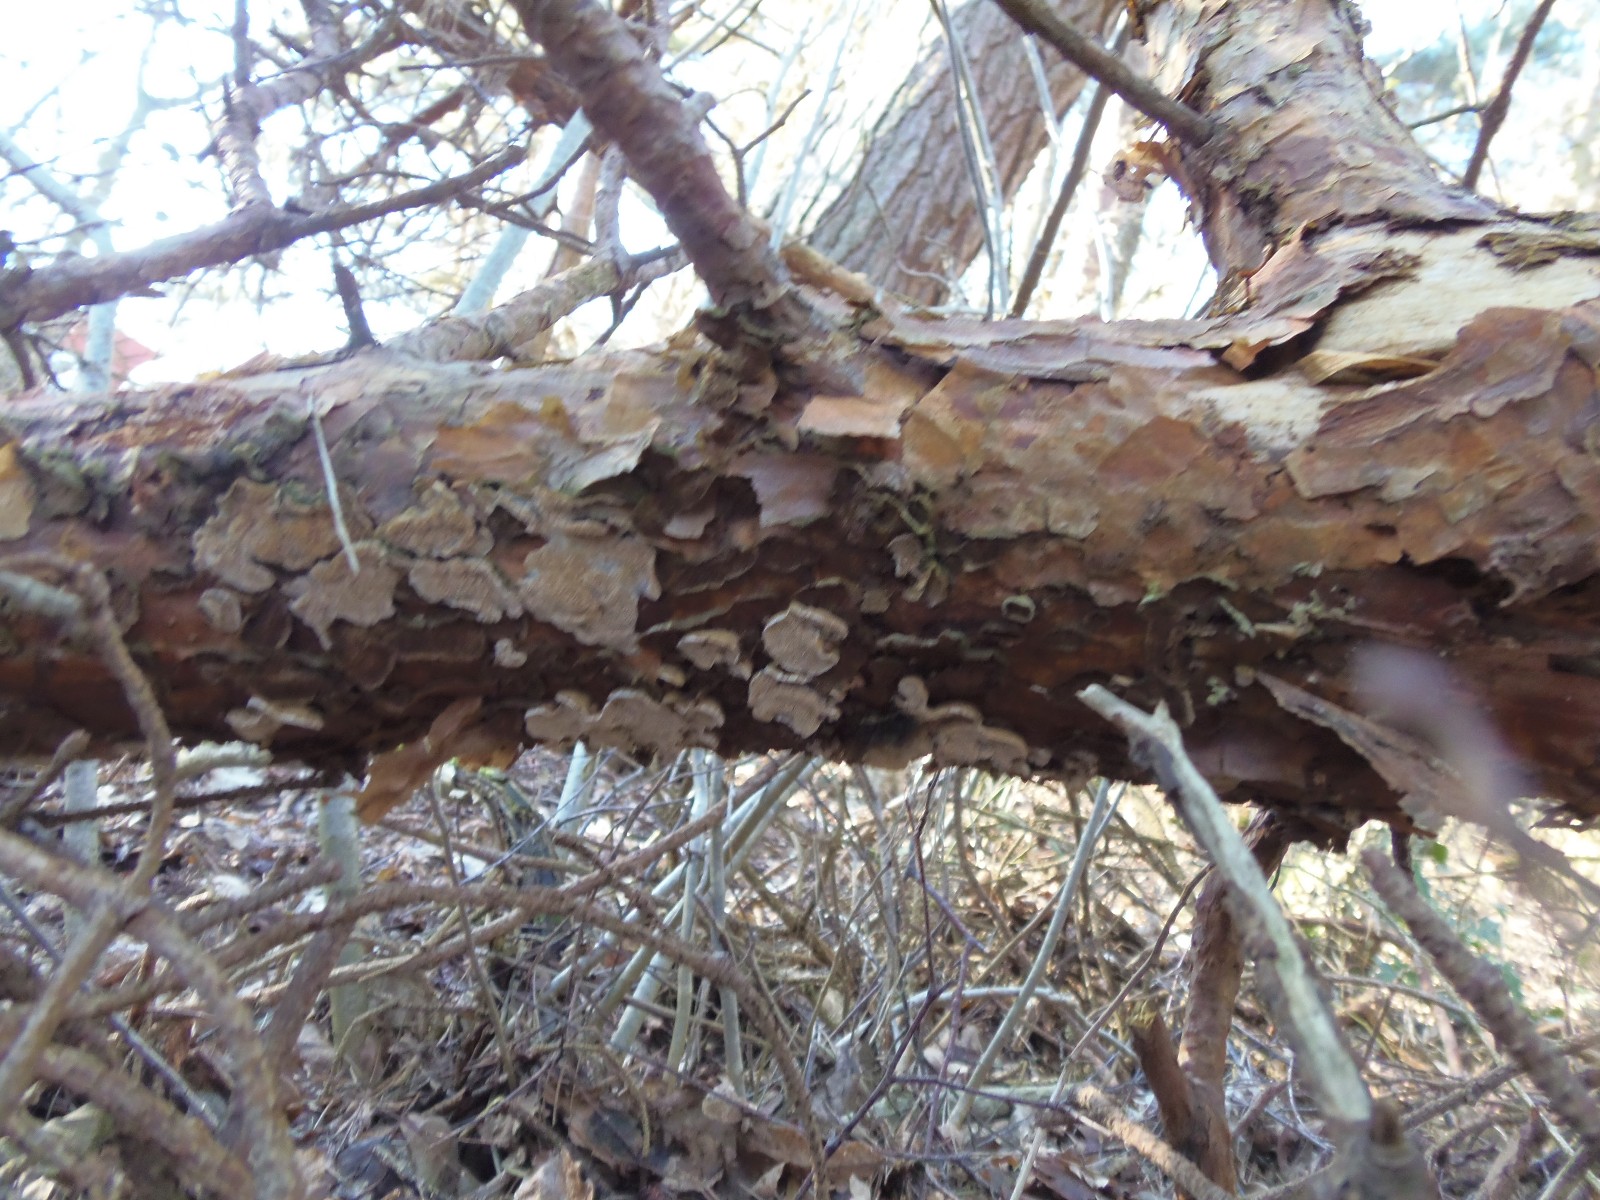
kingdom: Fungi
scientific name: Fungi
